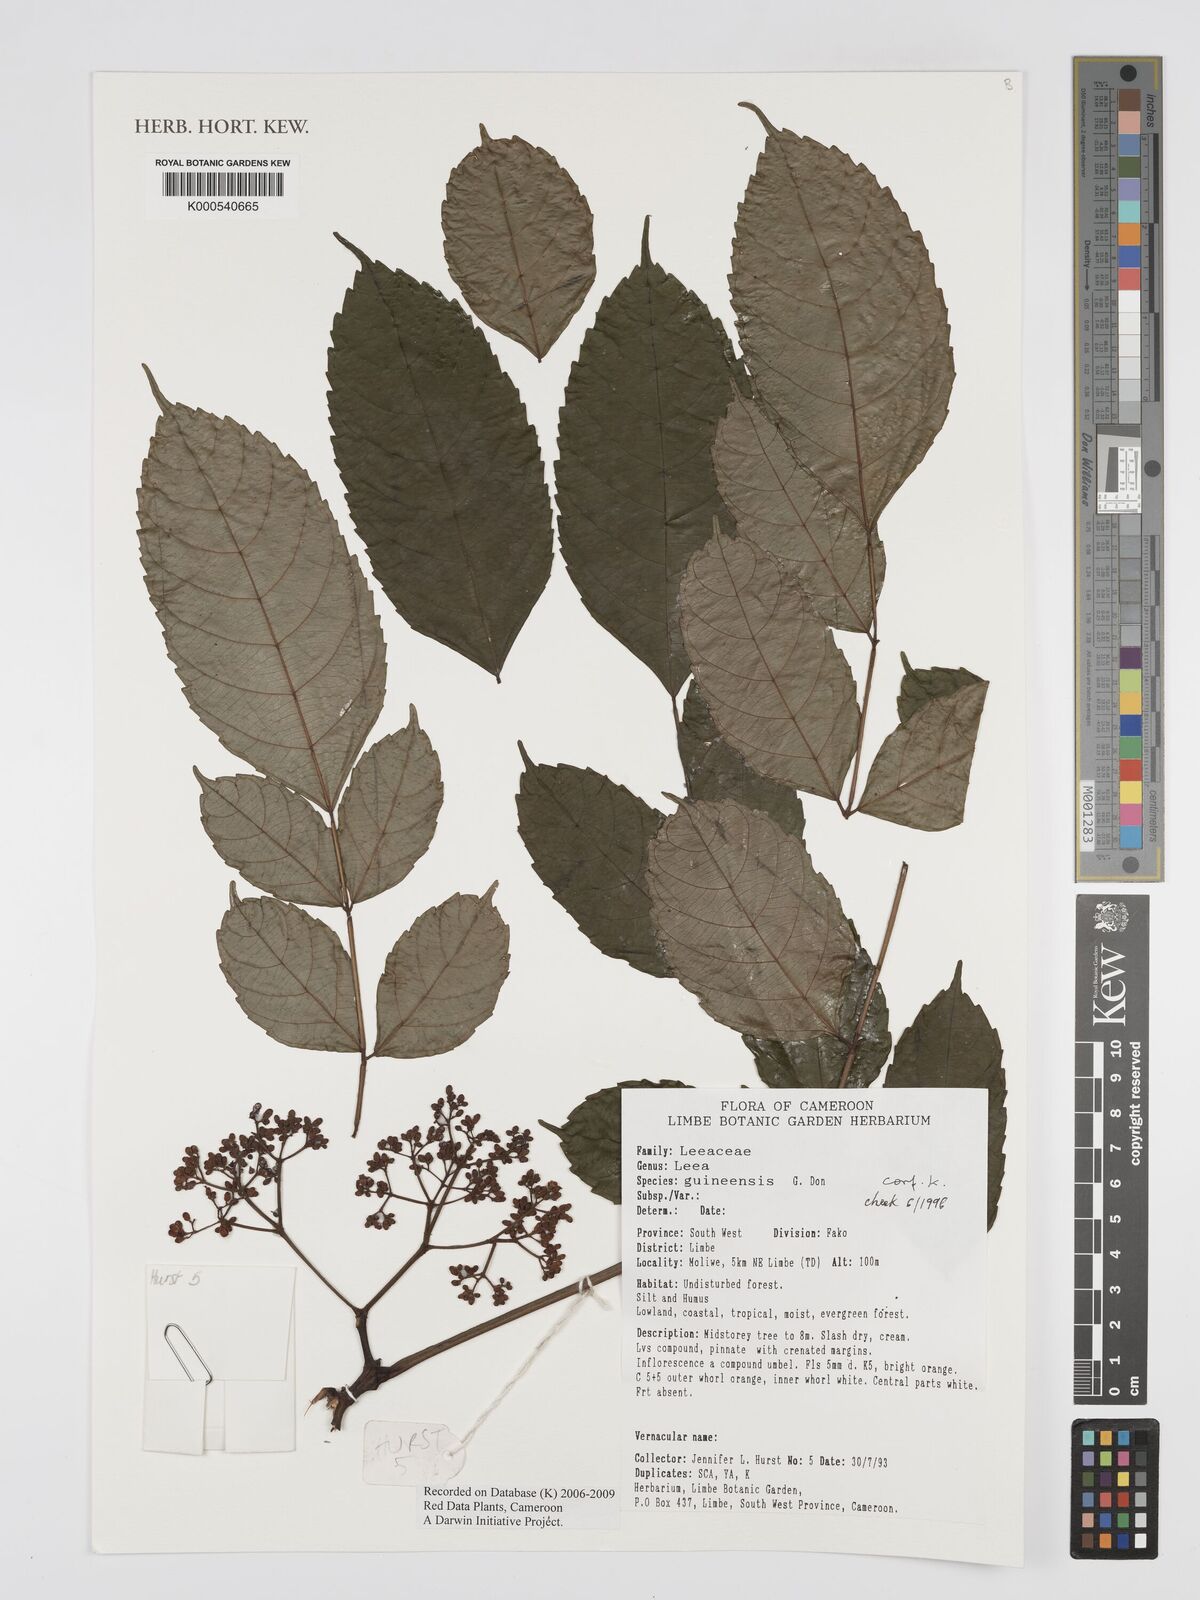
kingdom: Plantae
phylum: Tracheophyta
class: Magnoliopsida
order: Vitales
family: Vitaceae
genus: Leea
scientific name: Leea guineensis
